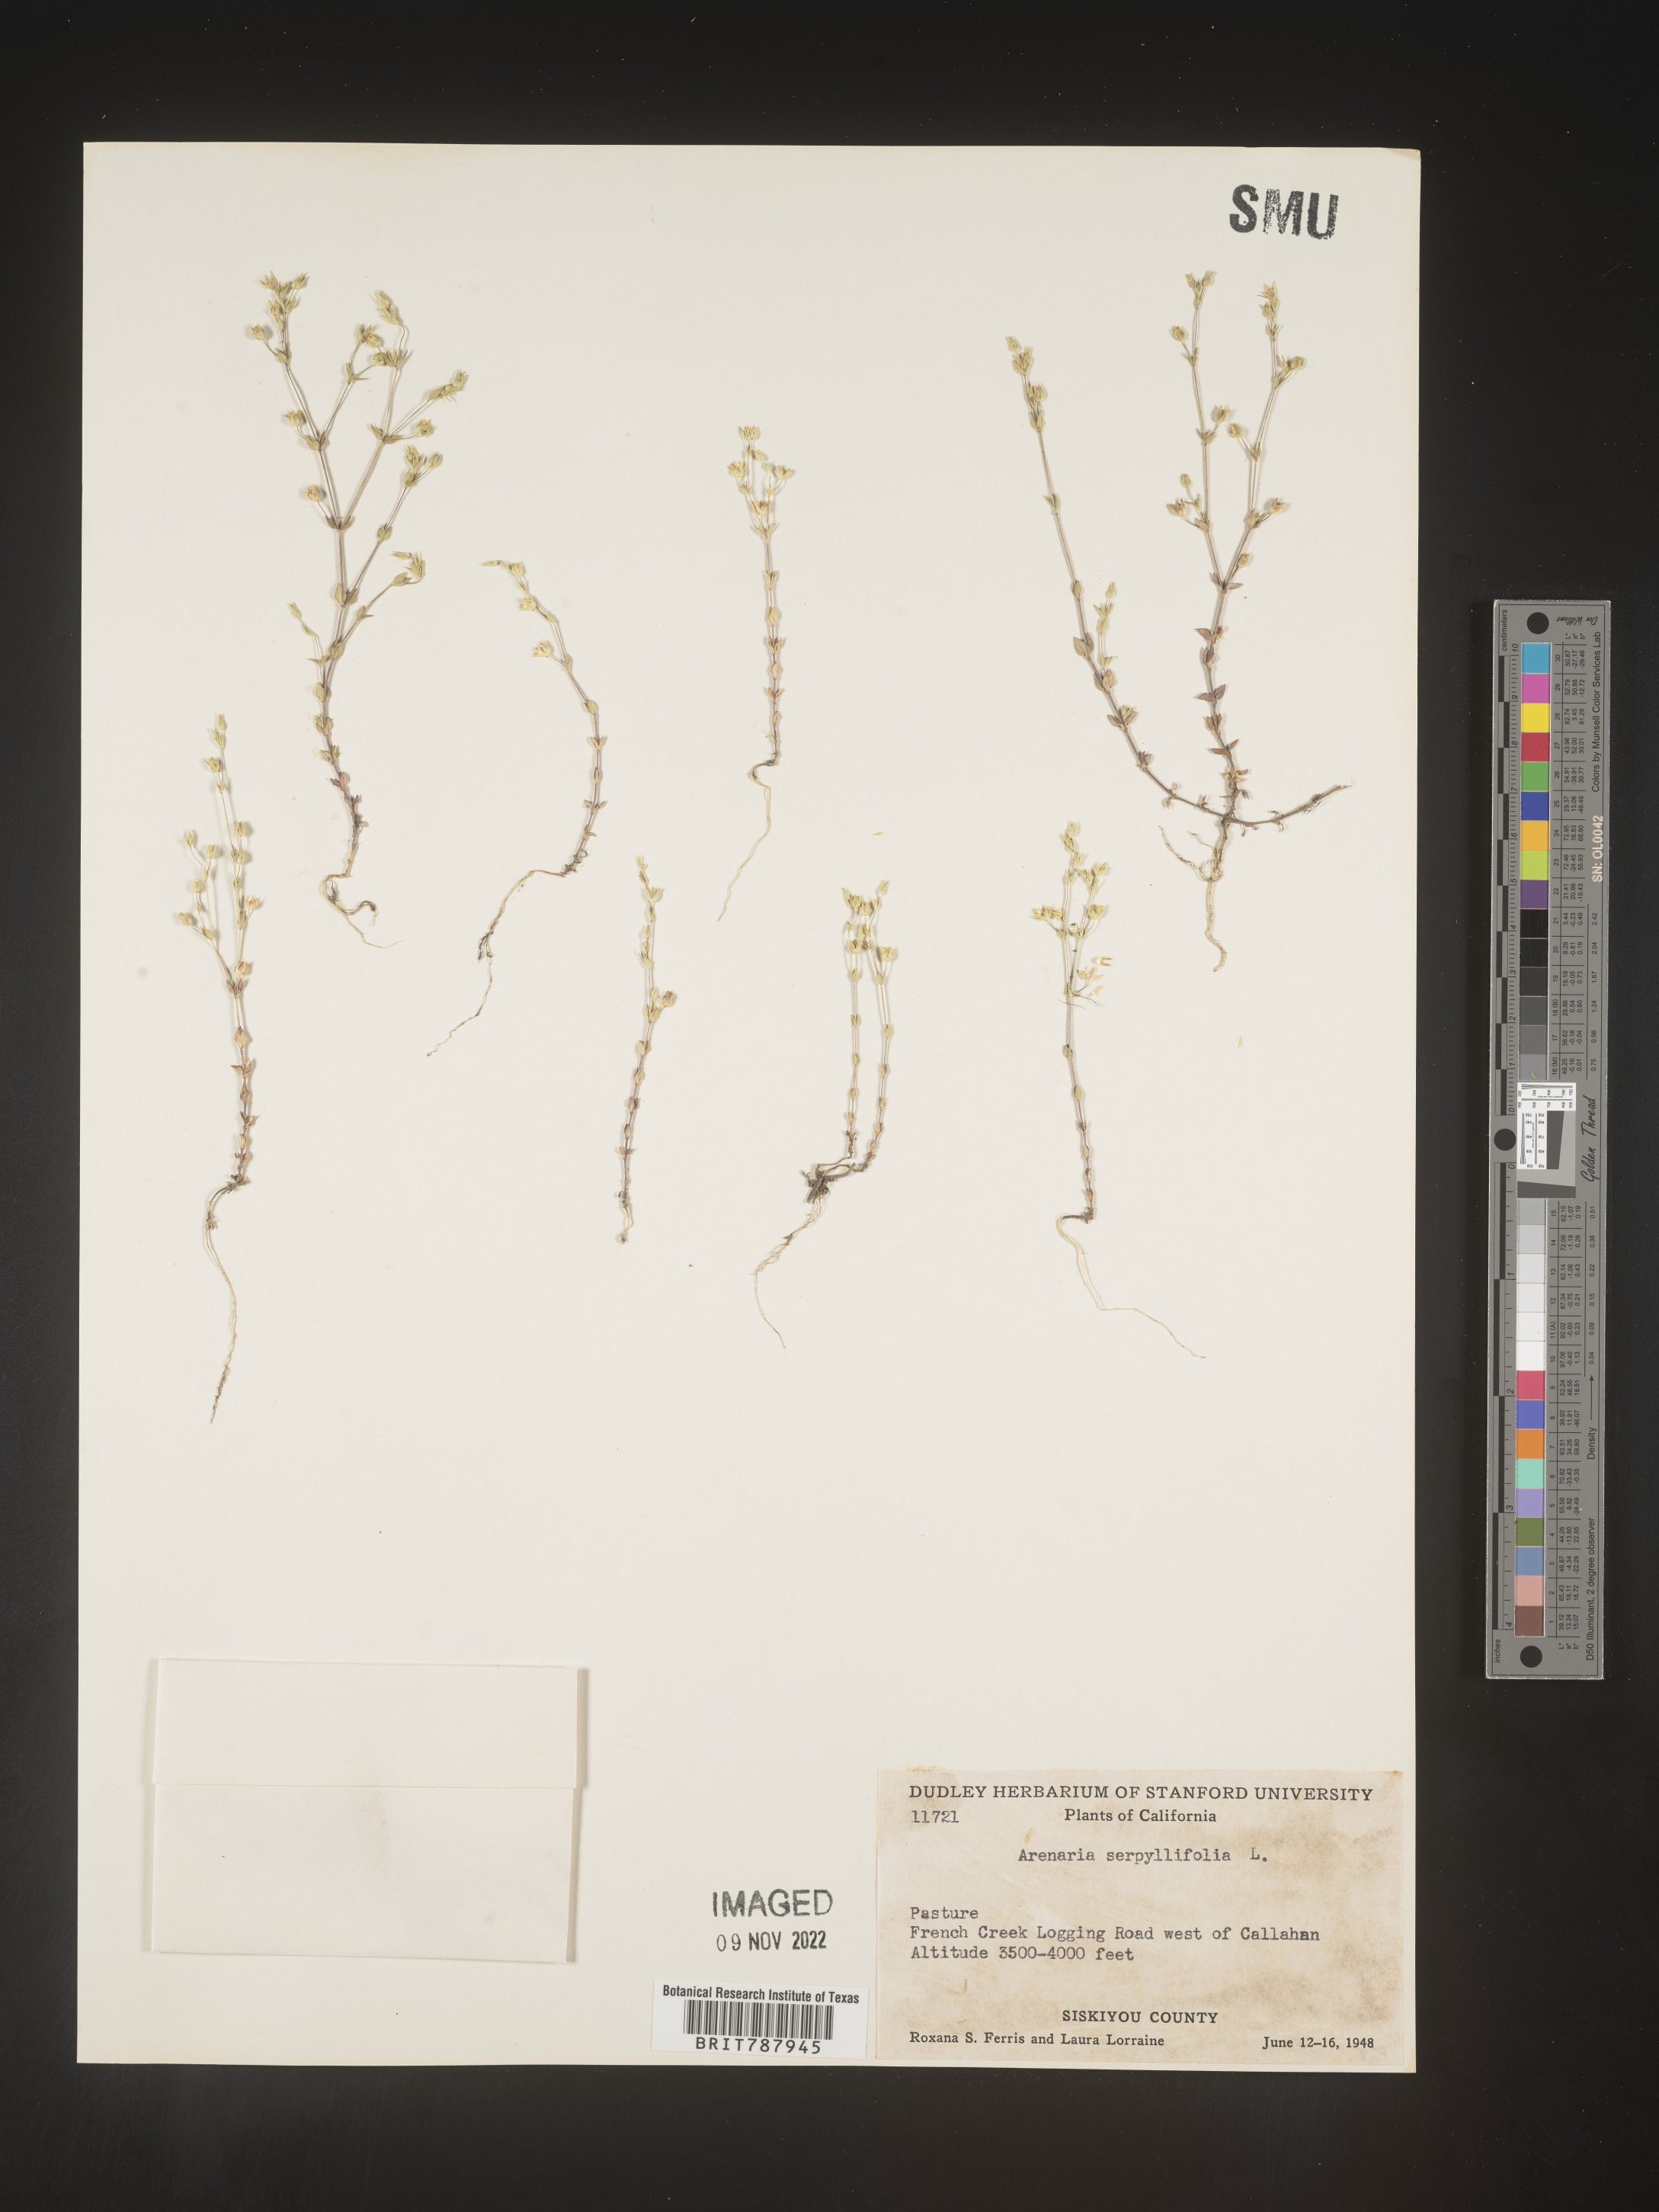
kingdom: Plantae
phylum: Tracheophyta
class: Magnoliopsida
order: Caryophyllales
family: Caryophyllaceae
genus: Arenaria
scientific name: Arenaria serpyllifolia
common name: Thyme-leaved sandwort
